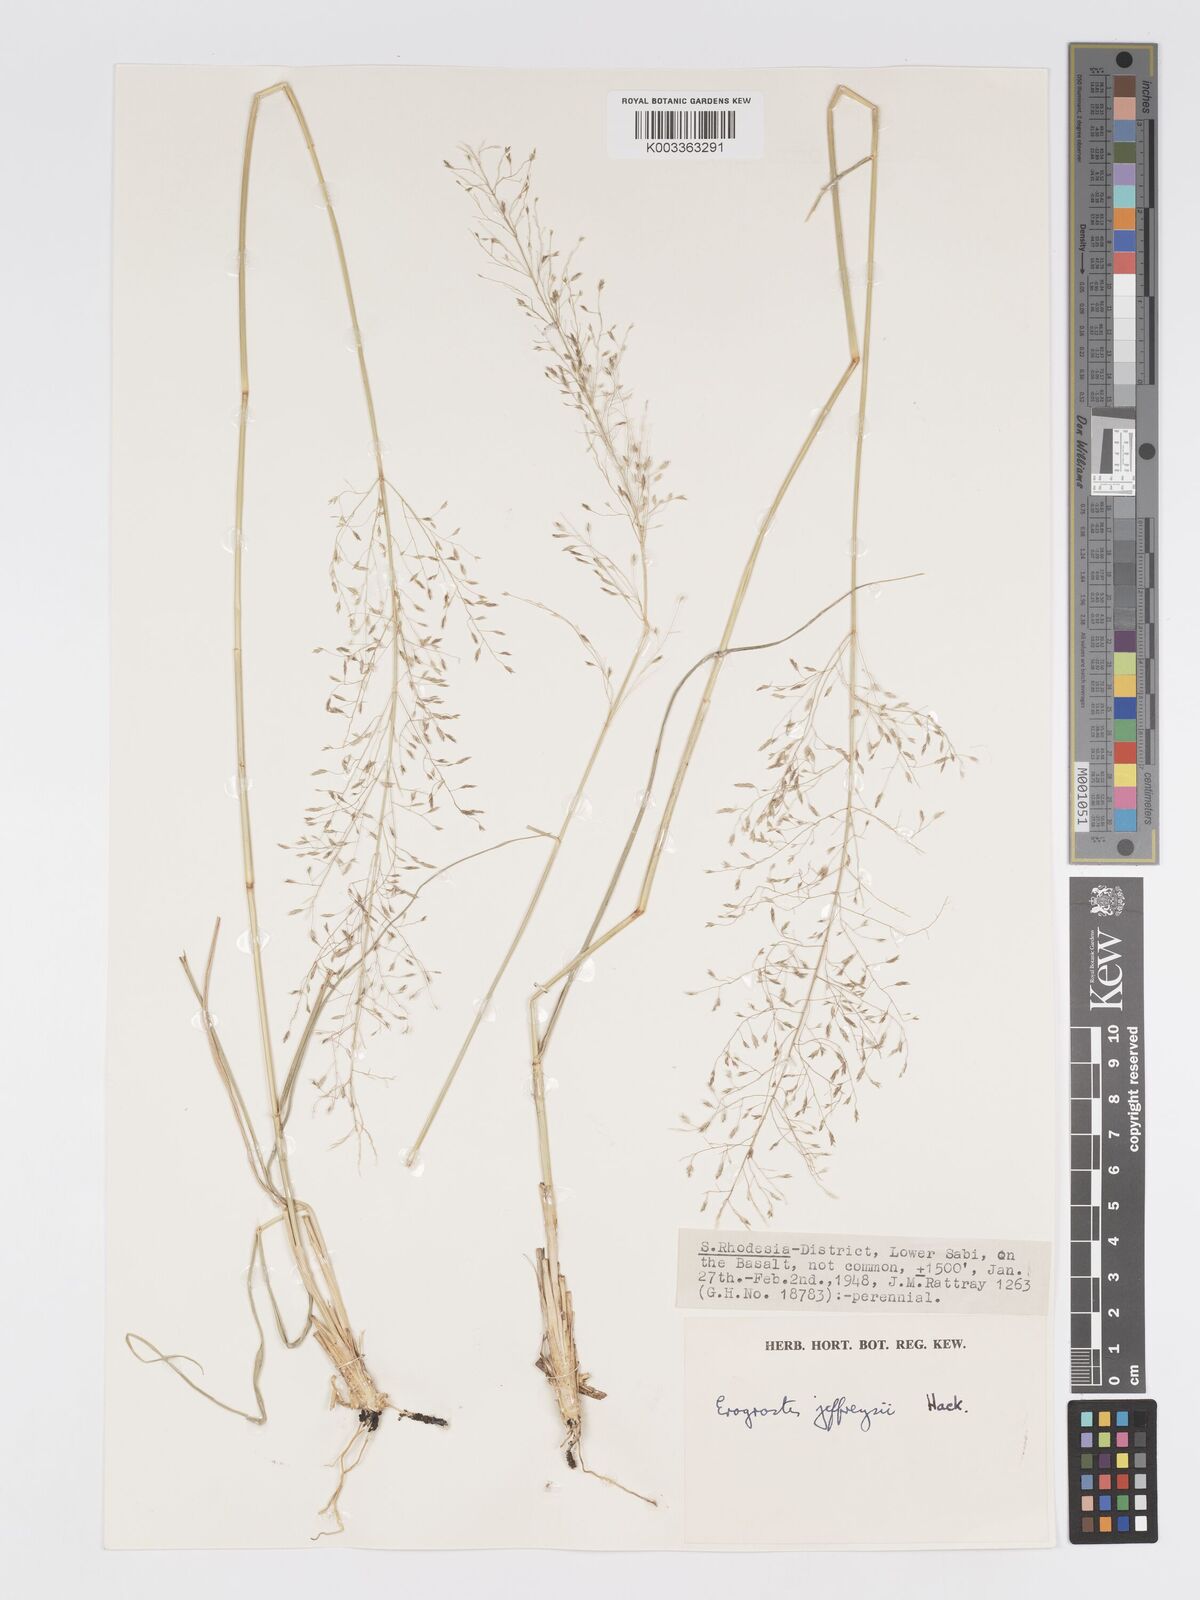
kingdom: Plantae
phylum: Tracheophyta
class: Liliopsida
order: Poales
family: Poaceae
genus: Eragrostis
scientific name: Eragrostis curvula
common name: African love-grass
